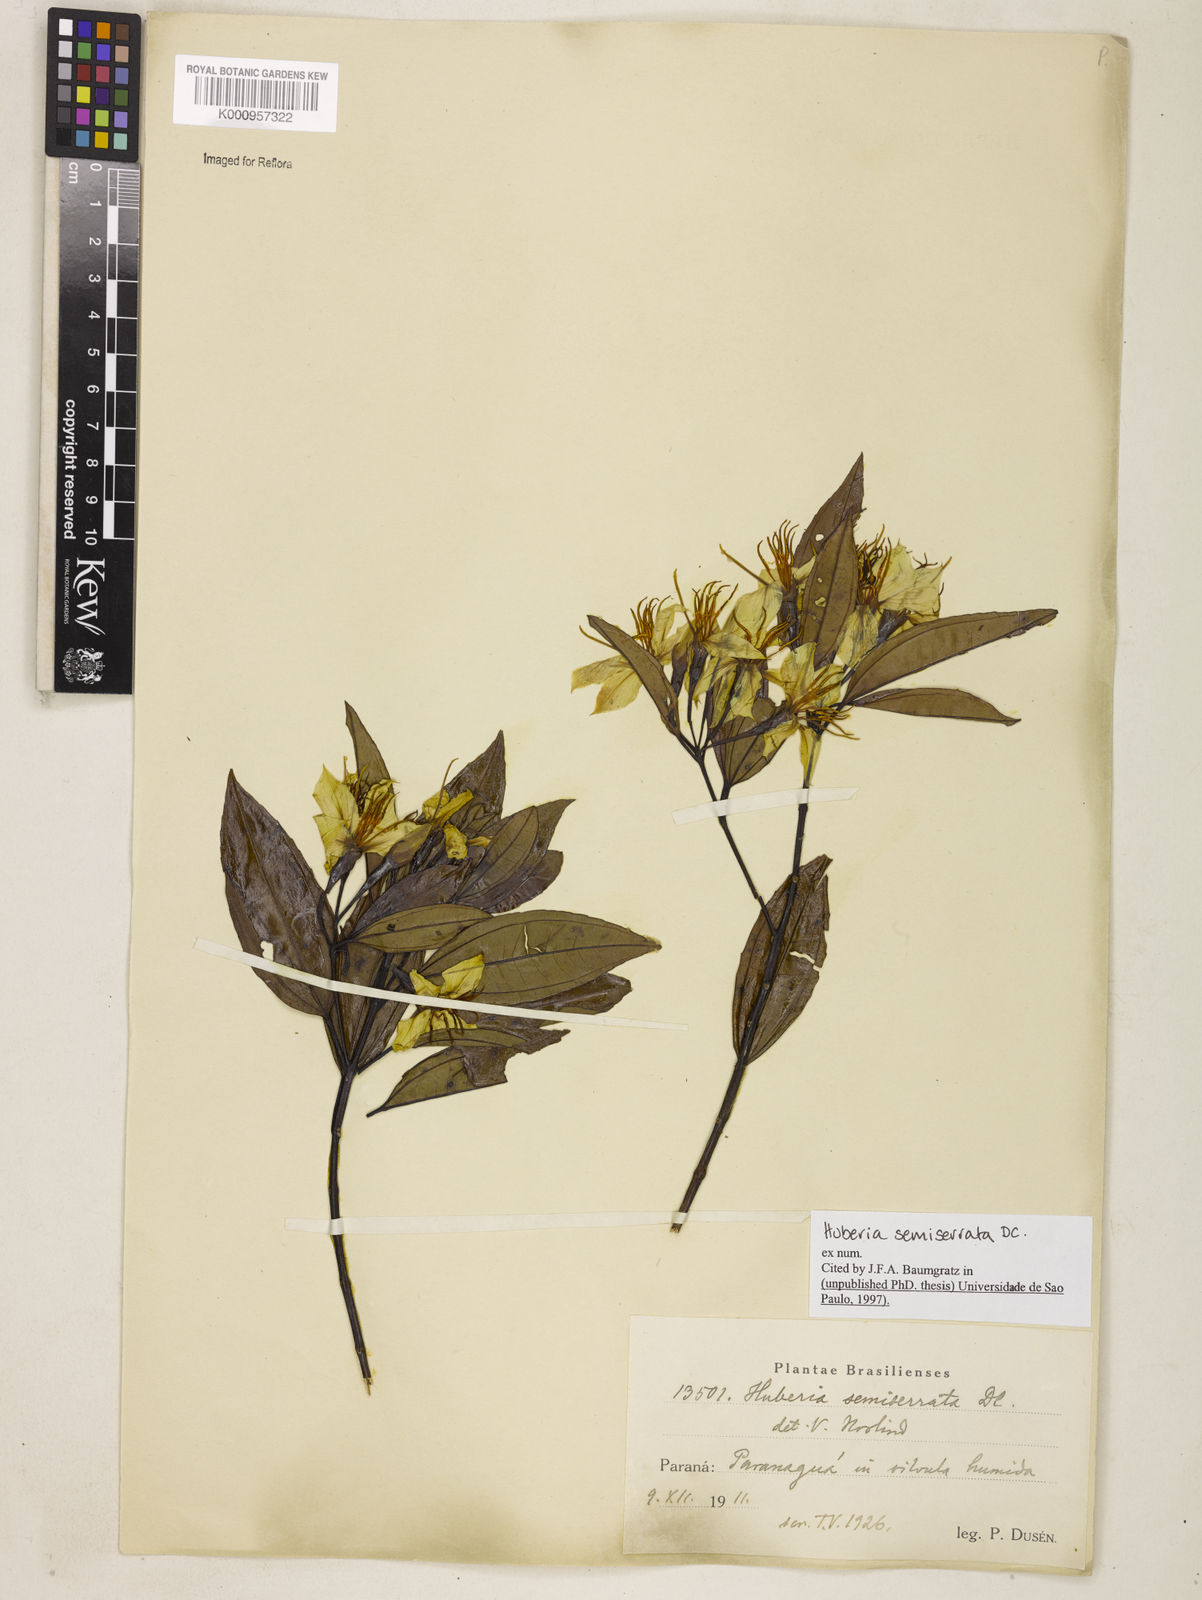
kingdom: Plantae
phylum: Tracheophyta
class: Magnoliopsida
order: Myrtales
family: Melastomataceae
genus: Huberia
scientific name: Huberia semiserrata
